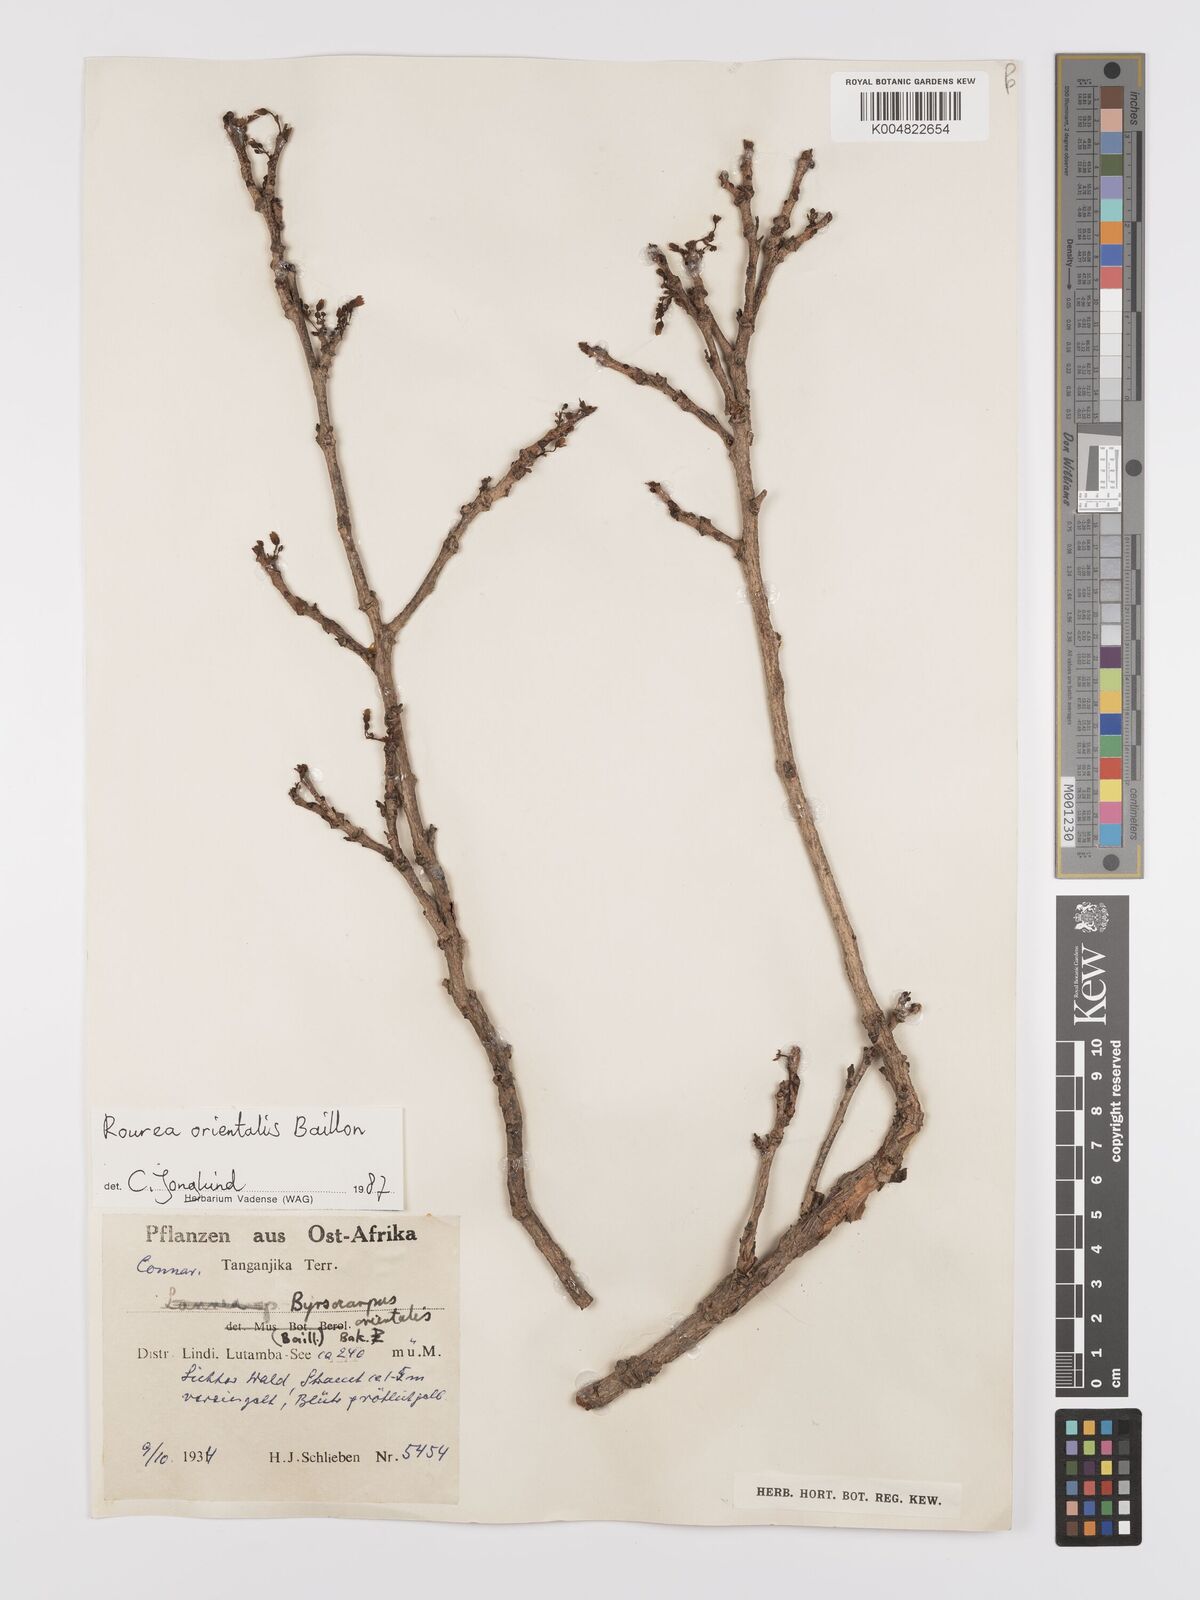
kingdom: Plantae
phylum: Tracheophyta
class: Magnoliopsida
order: Oxalidales
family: Connaraceae
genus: Rourea
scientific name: Rourea orientalis
